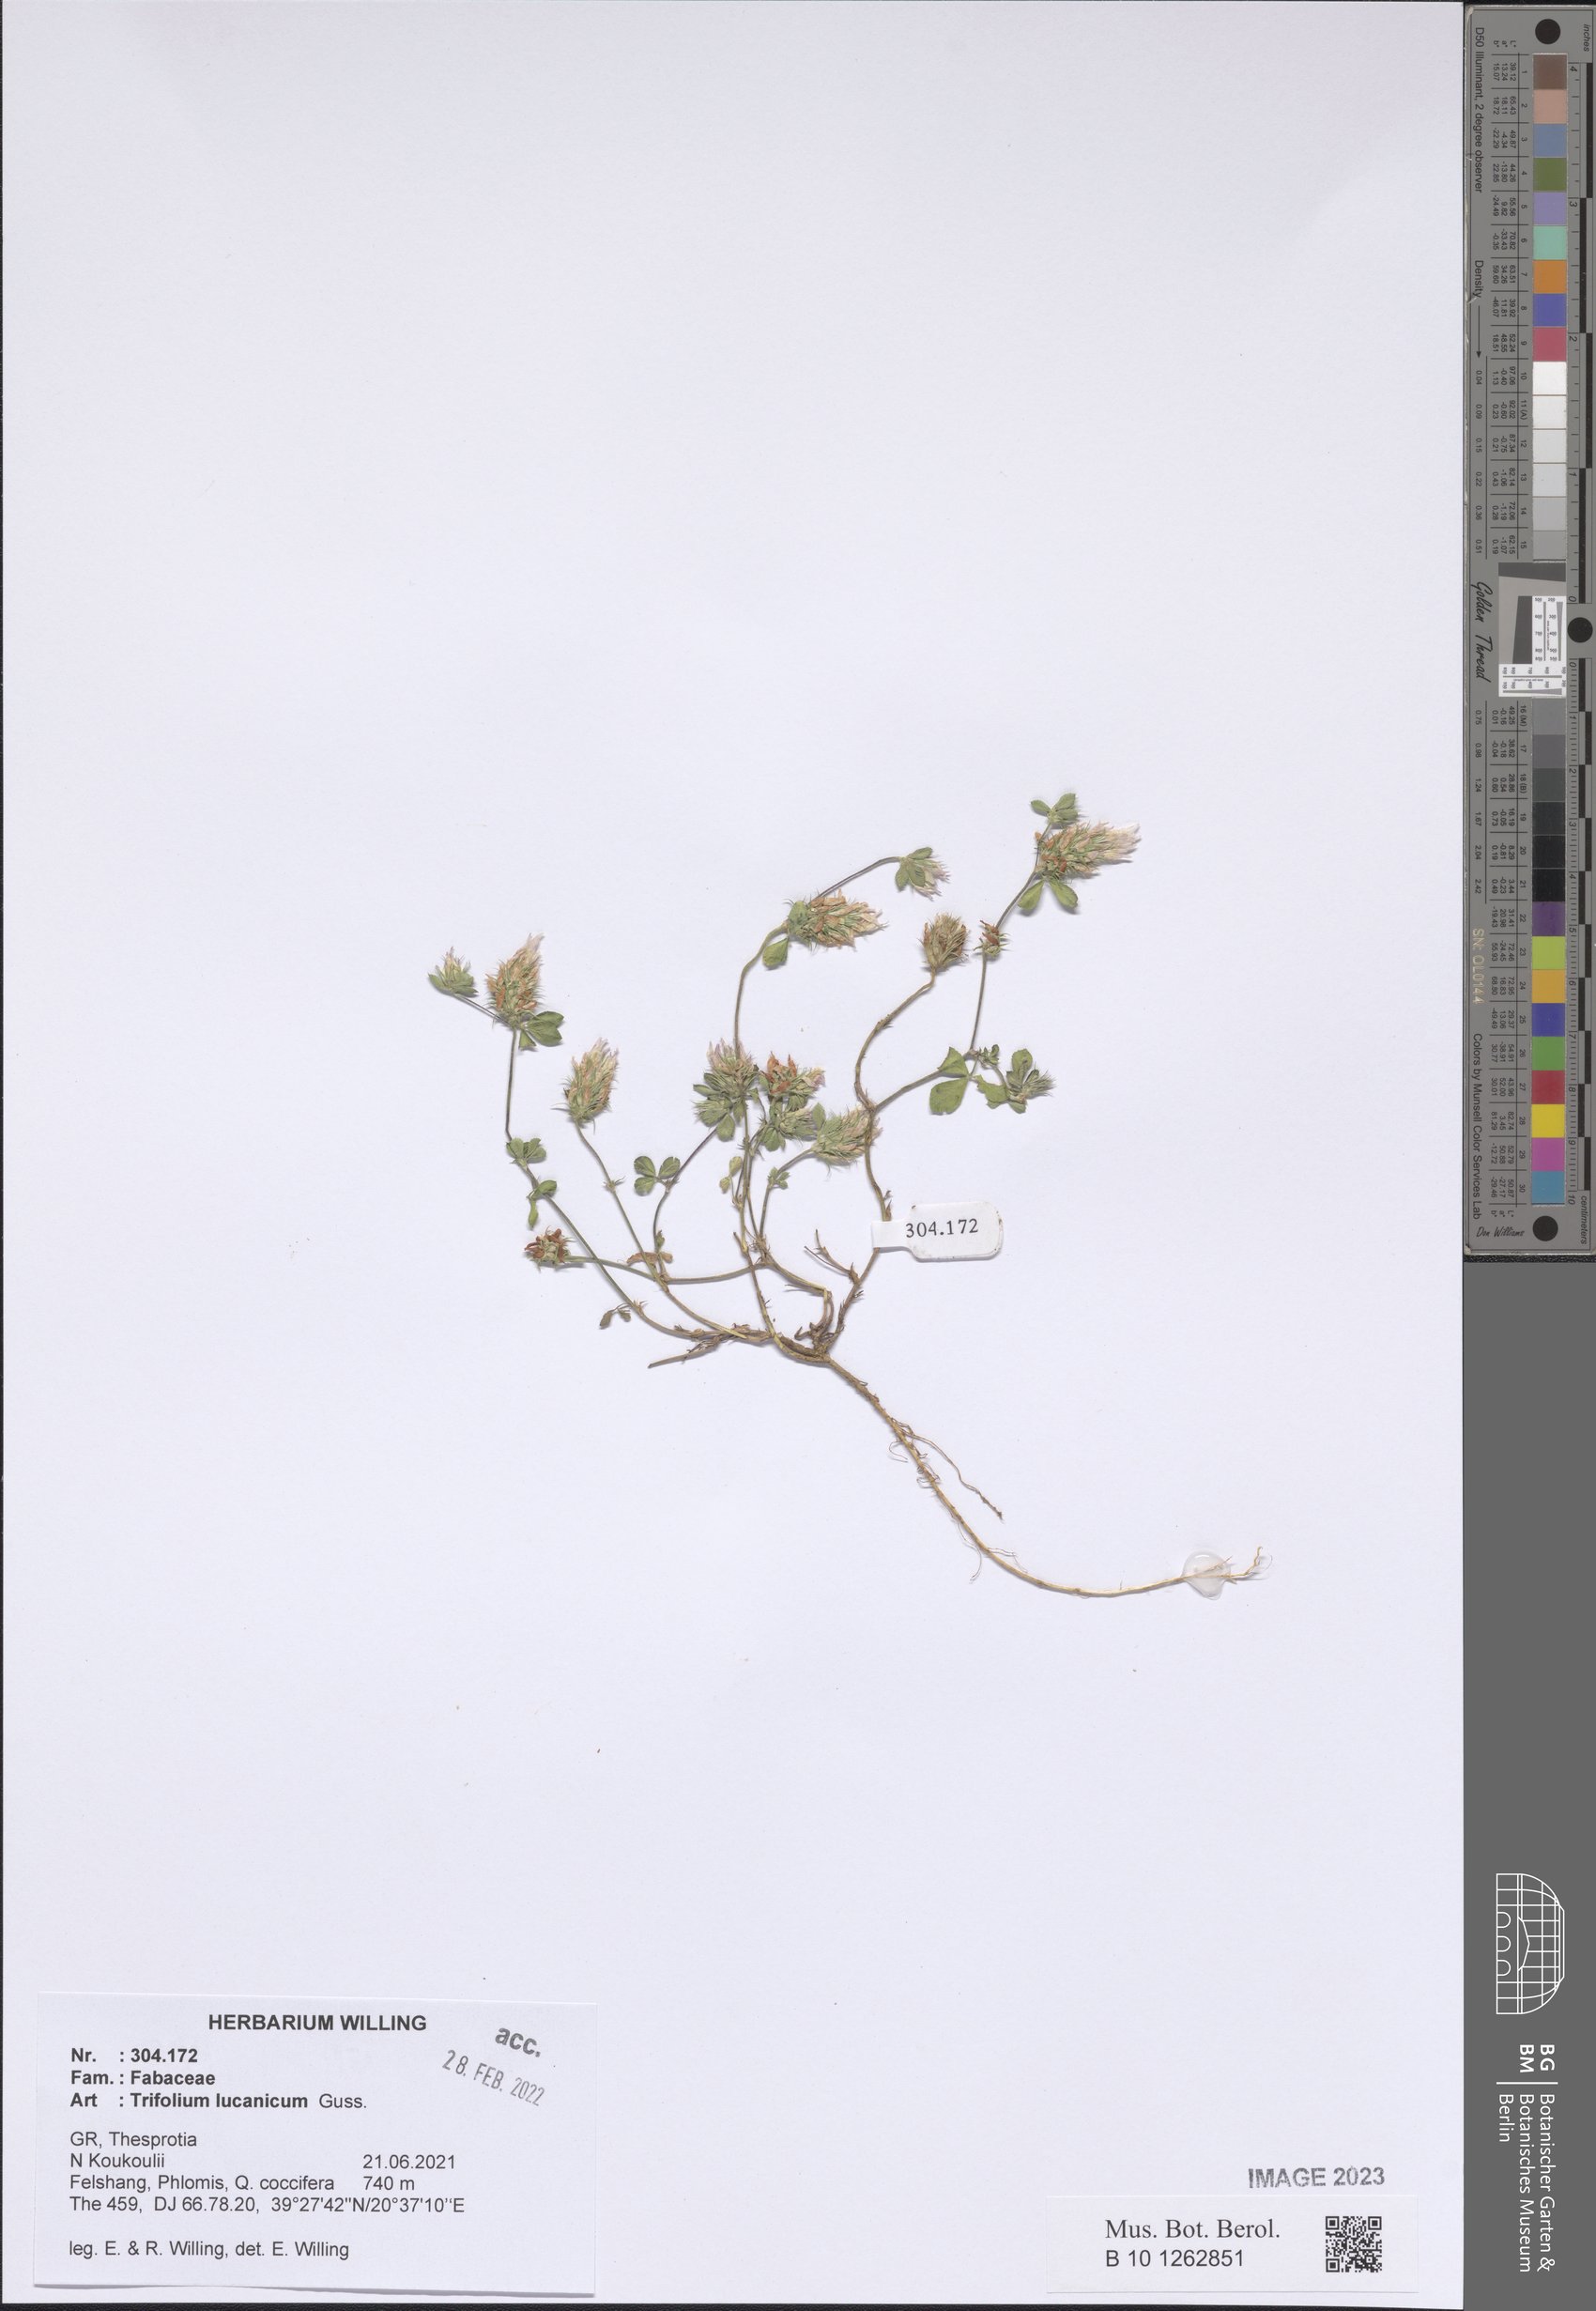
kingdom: Plantae
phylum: Tracheophyta
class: Magnoliopsida
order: Fabales
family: Fabaceae
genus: Trifolium
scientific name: Trifolium lucanicum
